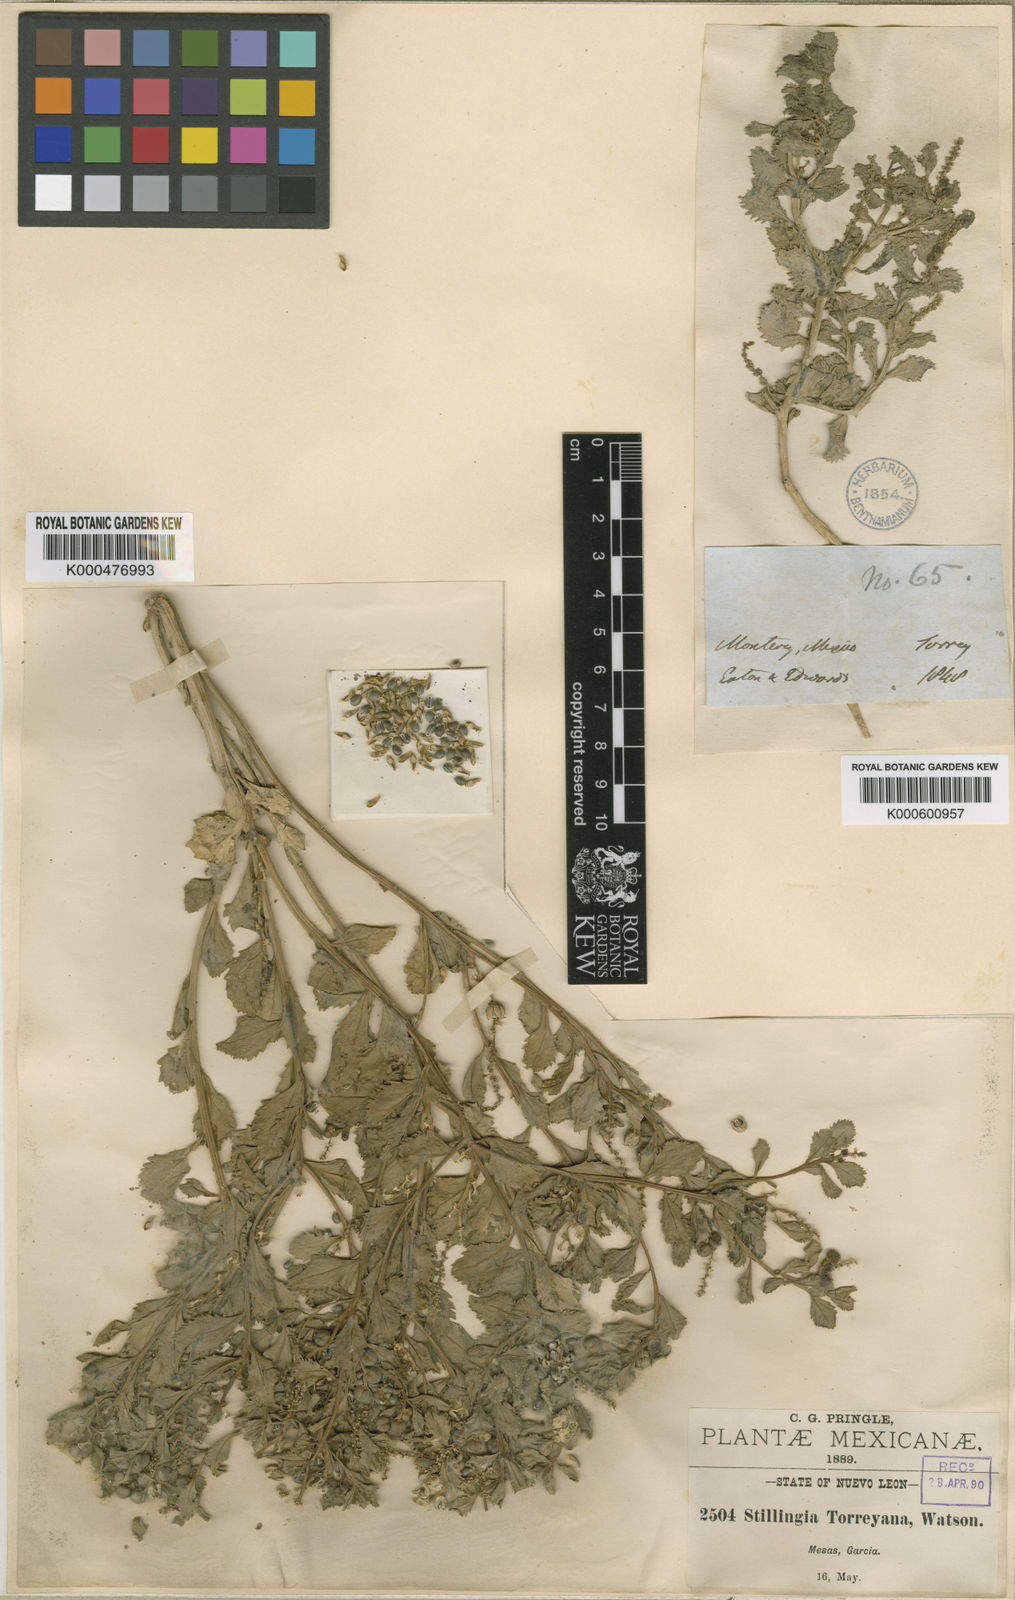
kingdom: Plantae
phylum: Tracheophyta
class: Magnoliopsida
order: Malpighiales
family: Euphorbiaceae
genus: Stillingia
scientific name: Stillingia treculiana
